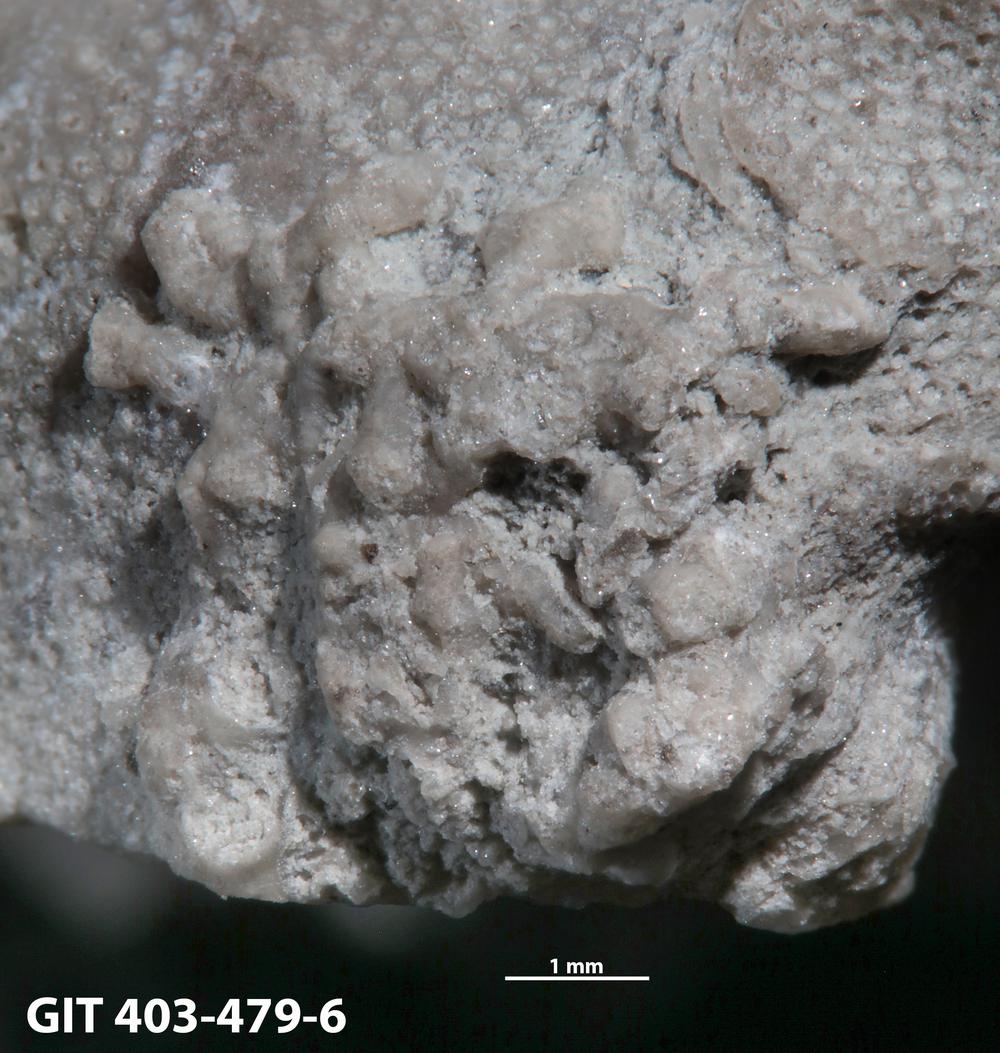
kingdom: Animalia
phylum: Cnidaria
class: Anthozoa
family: Auloporidae
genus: Aulopora
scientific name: Aulopora
